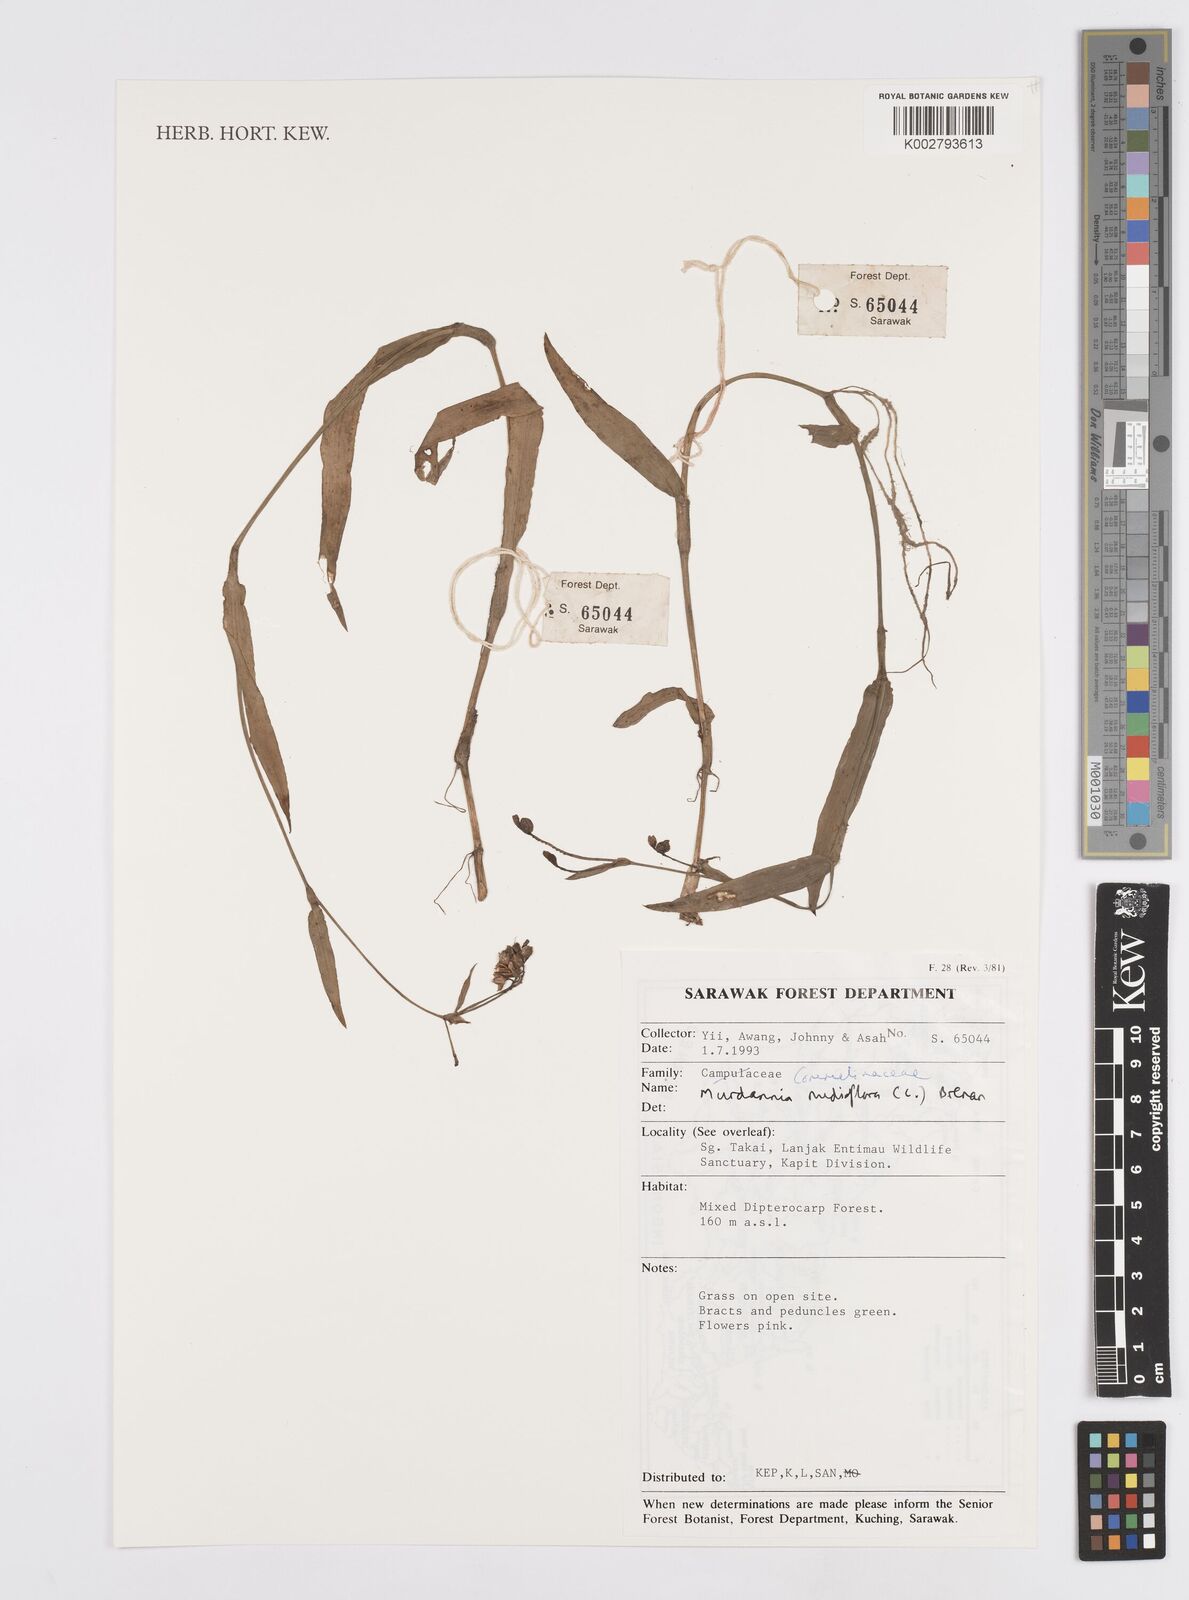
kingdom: Plantae
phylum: Tracheophyta
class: Liliopsida
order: Commelinales
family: Commelinaceae
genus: Murdannia
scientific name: Murdannia nudiflora
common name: Nakedstem dewflower
